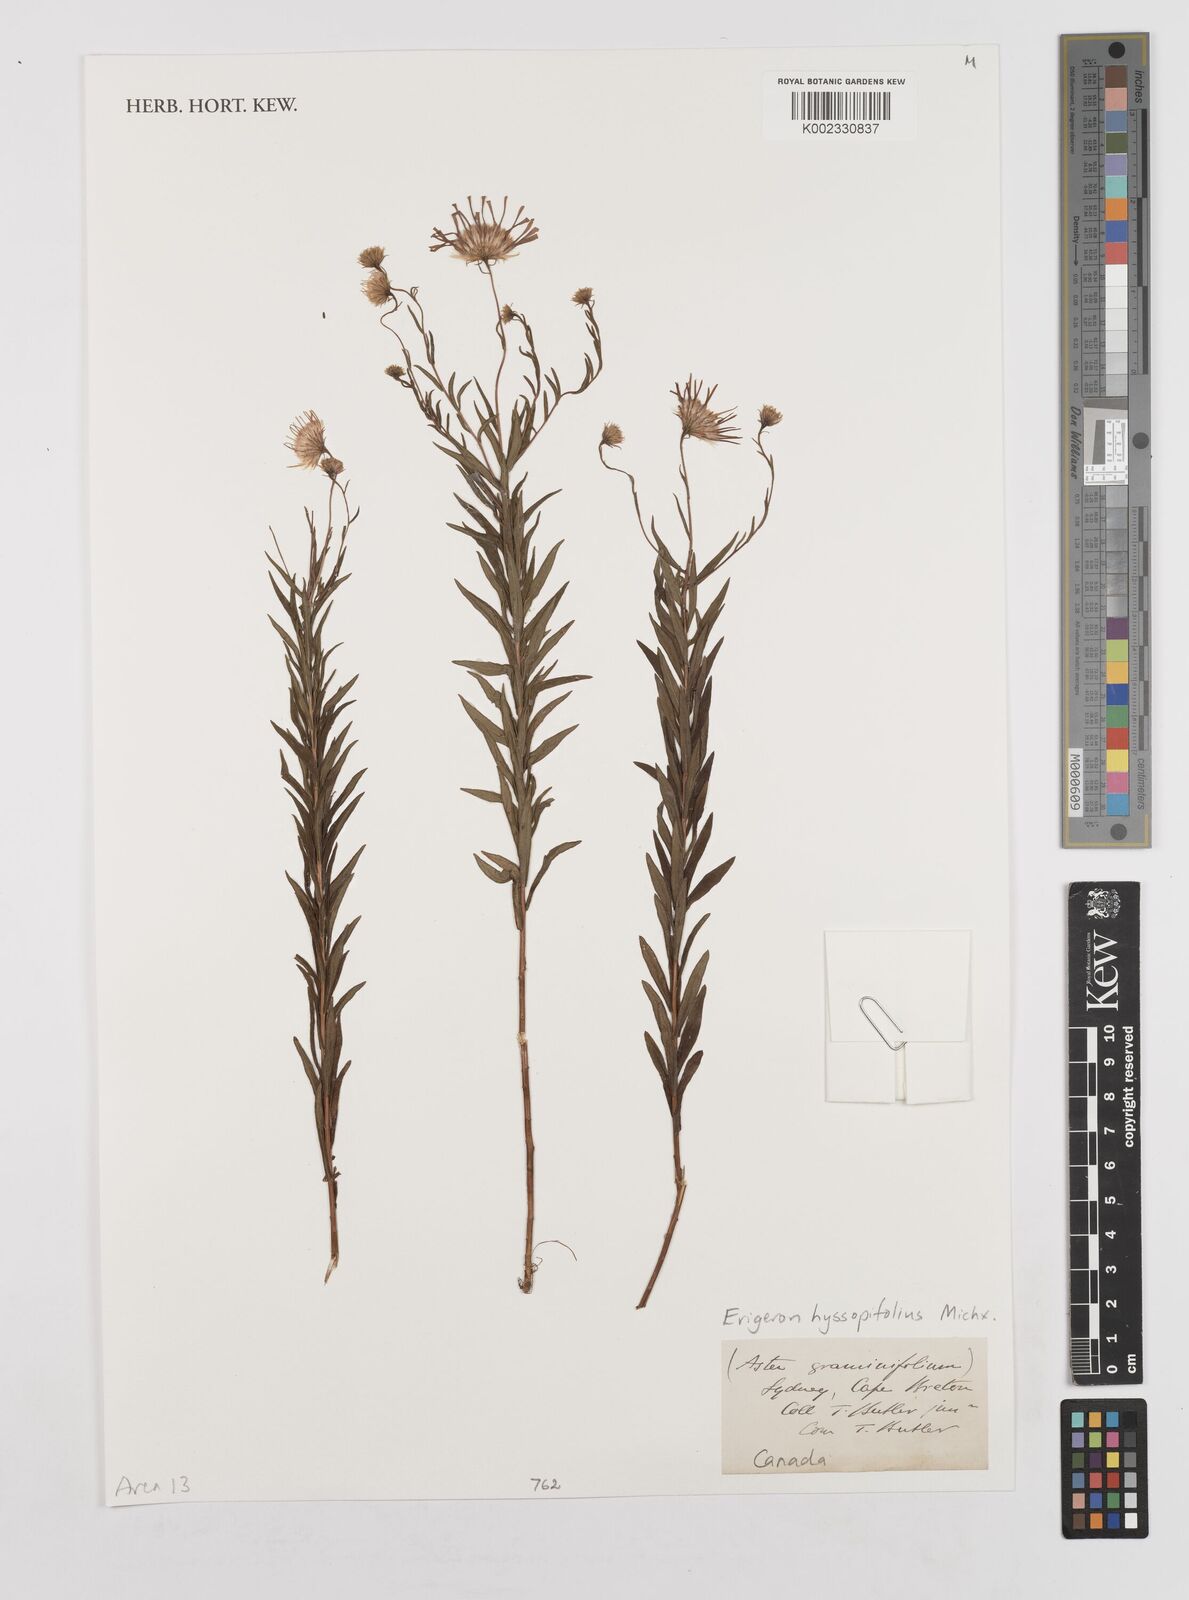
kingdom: Plantae
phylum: Tracheophyta
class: Magnoliopsida
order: Asterales
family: Asteraceae
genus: Erigeron
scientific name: Erigeron hyssopifolius
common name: Daisy fleabane
